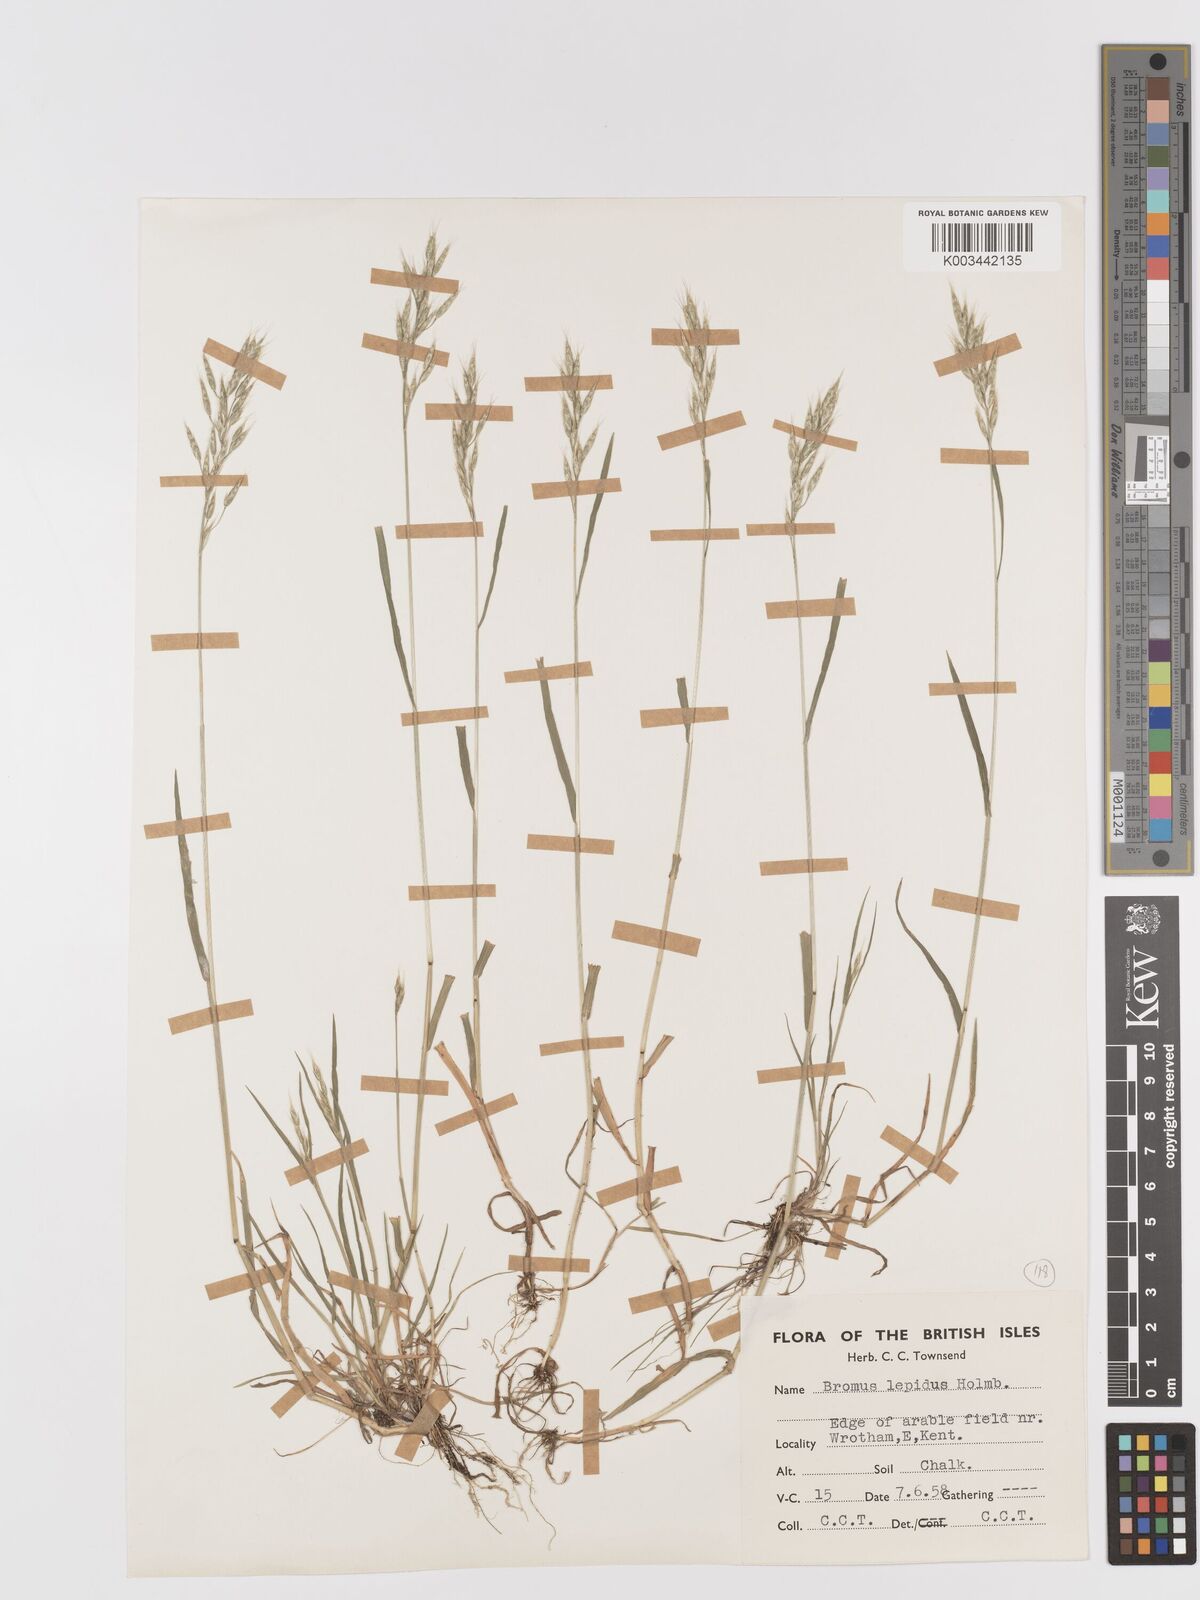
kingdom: Plantae
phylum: Tracheophyta
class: Liliopsida
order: Poales
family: Poaceae
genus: Bromus
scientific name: Bromus lepidus
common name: Slender soft-brome
